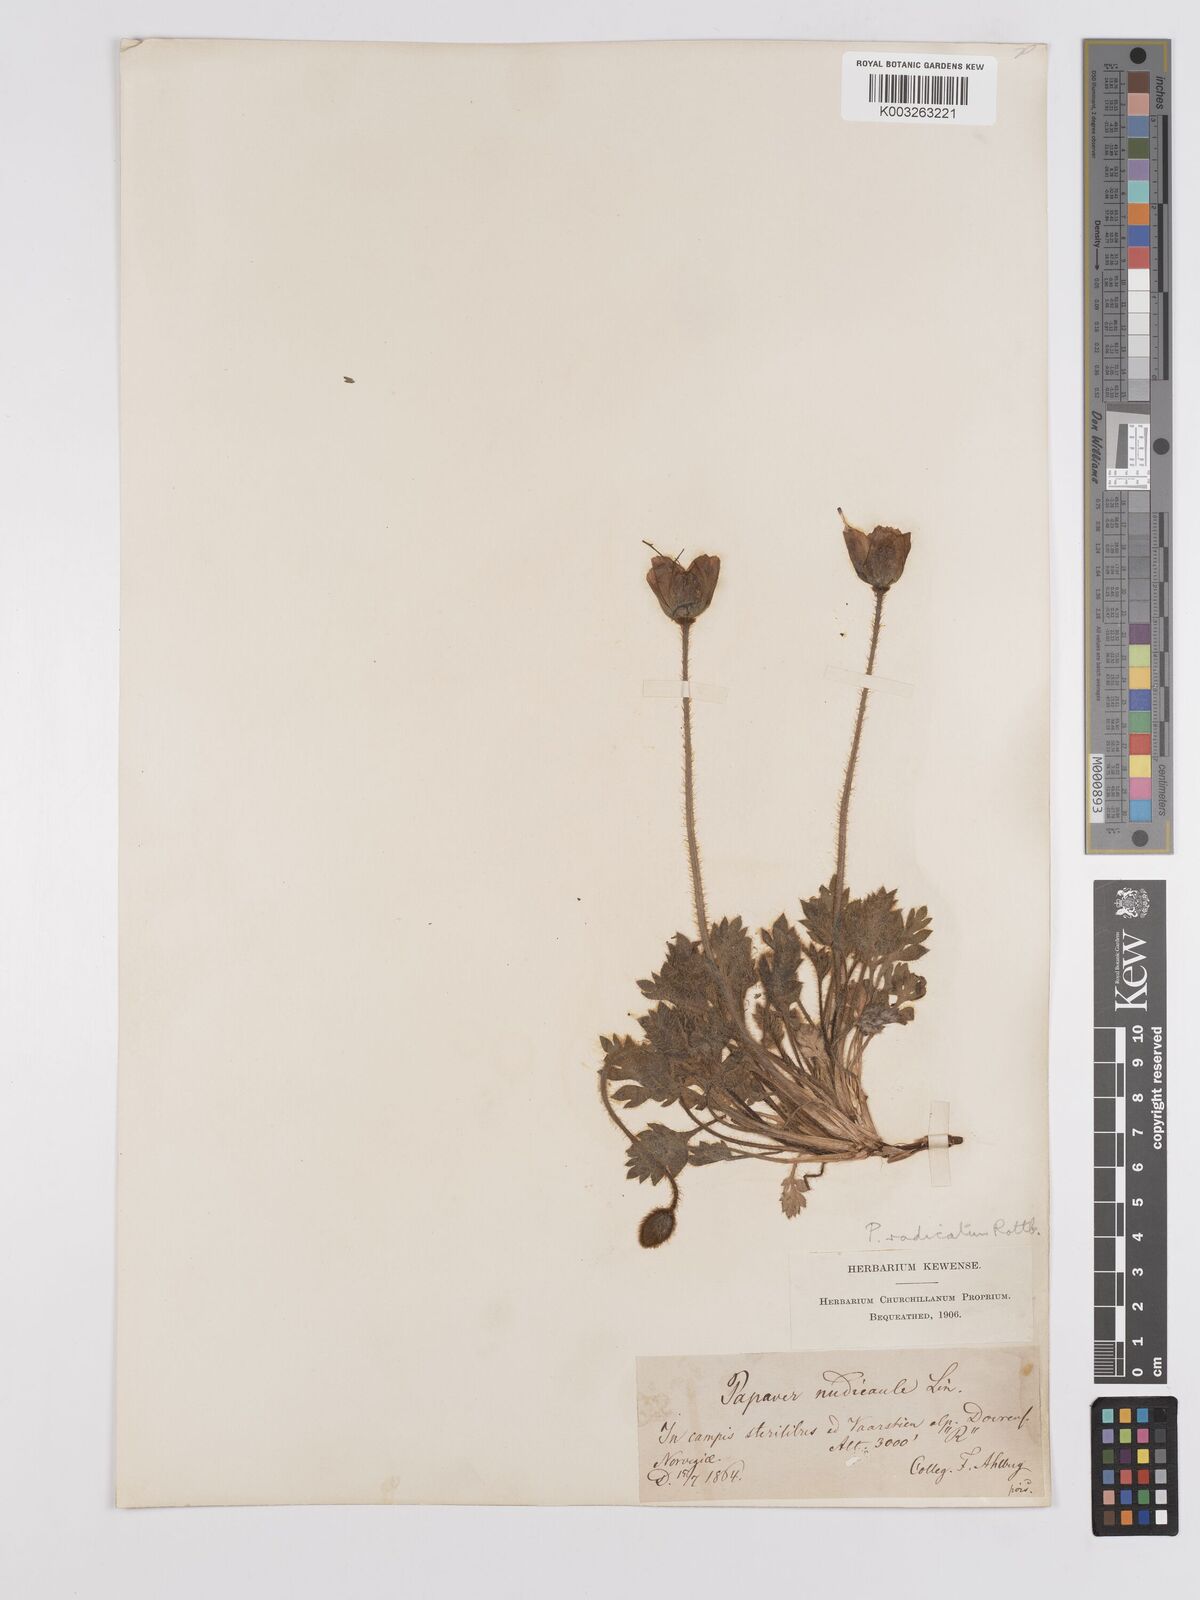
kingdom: Plantae
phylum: Tracheophyta
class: Magnoliopsida
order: Ranunculales
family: Papaveraceae
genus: Papaver
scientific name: Papaver radicatum
